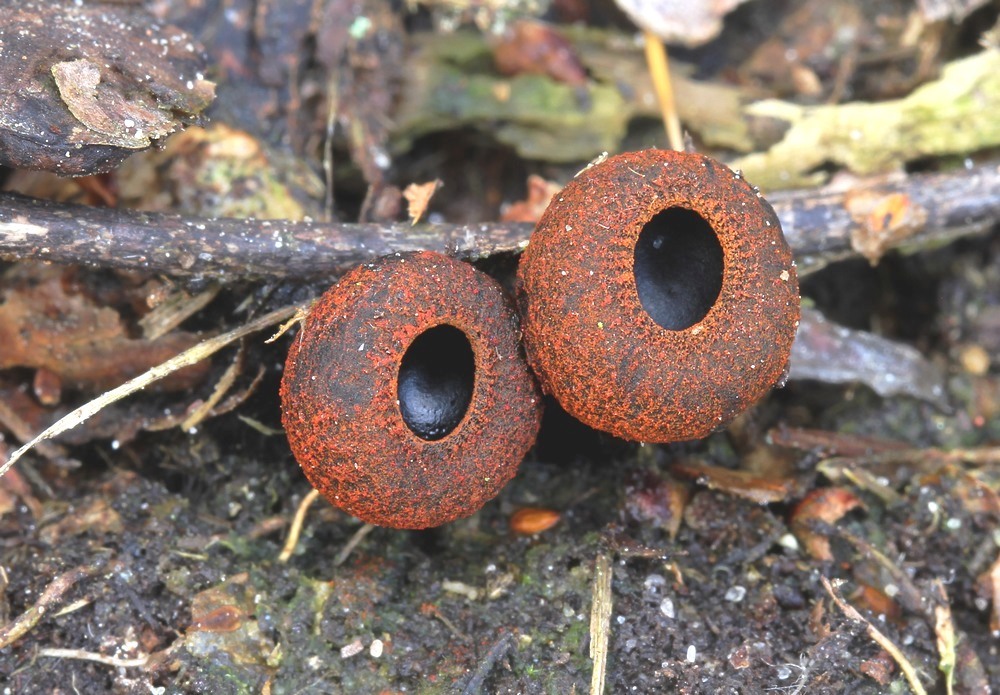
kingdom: Fungi
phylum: Ascomycota
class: Pezizomycetes
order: Pezizales
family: Sarcosomataceae
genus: Plectania
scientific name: Plectania melastoma
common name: rustbæger
